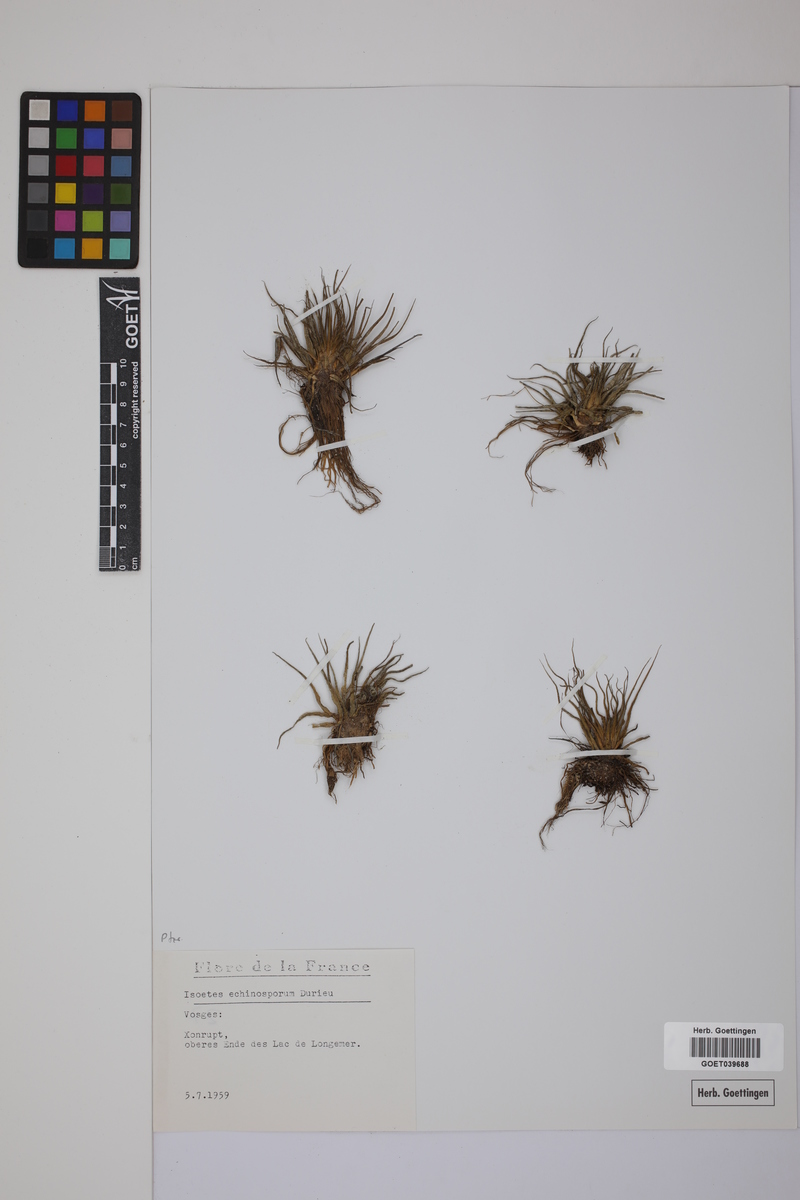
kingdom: Plantae
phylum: Tracheophyta
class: Lycopodiopsida
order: Isoetales
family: Isoetaceae
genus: Isoetes
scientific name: Isoetes echinospora
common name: Spring quillwort
